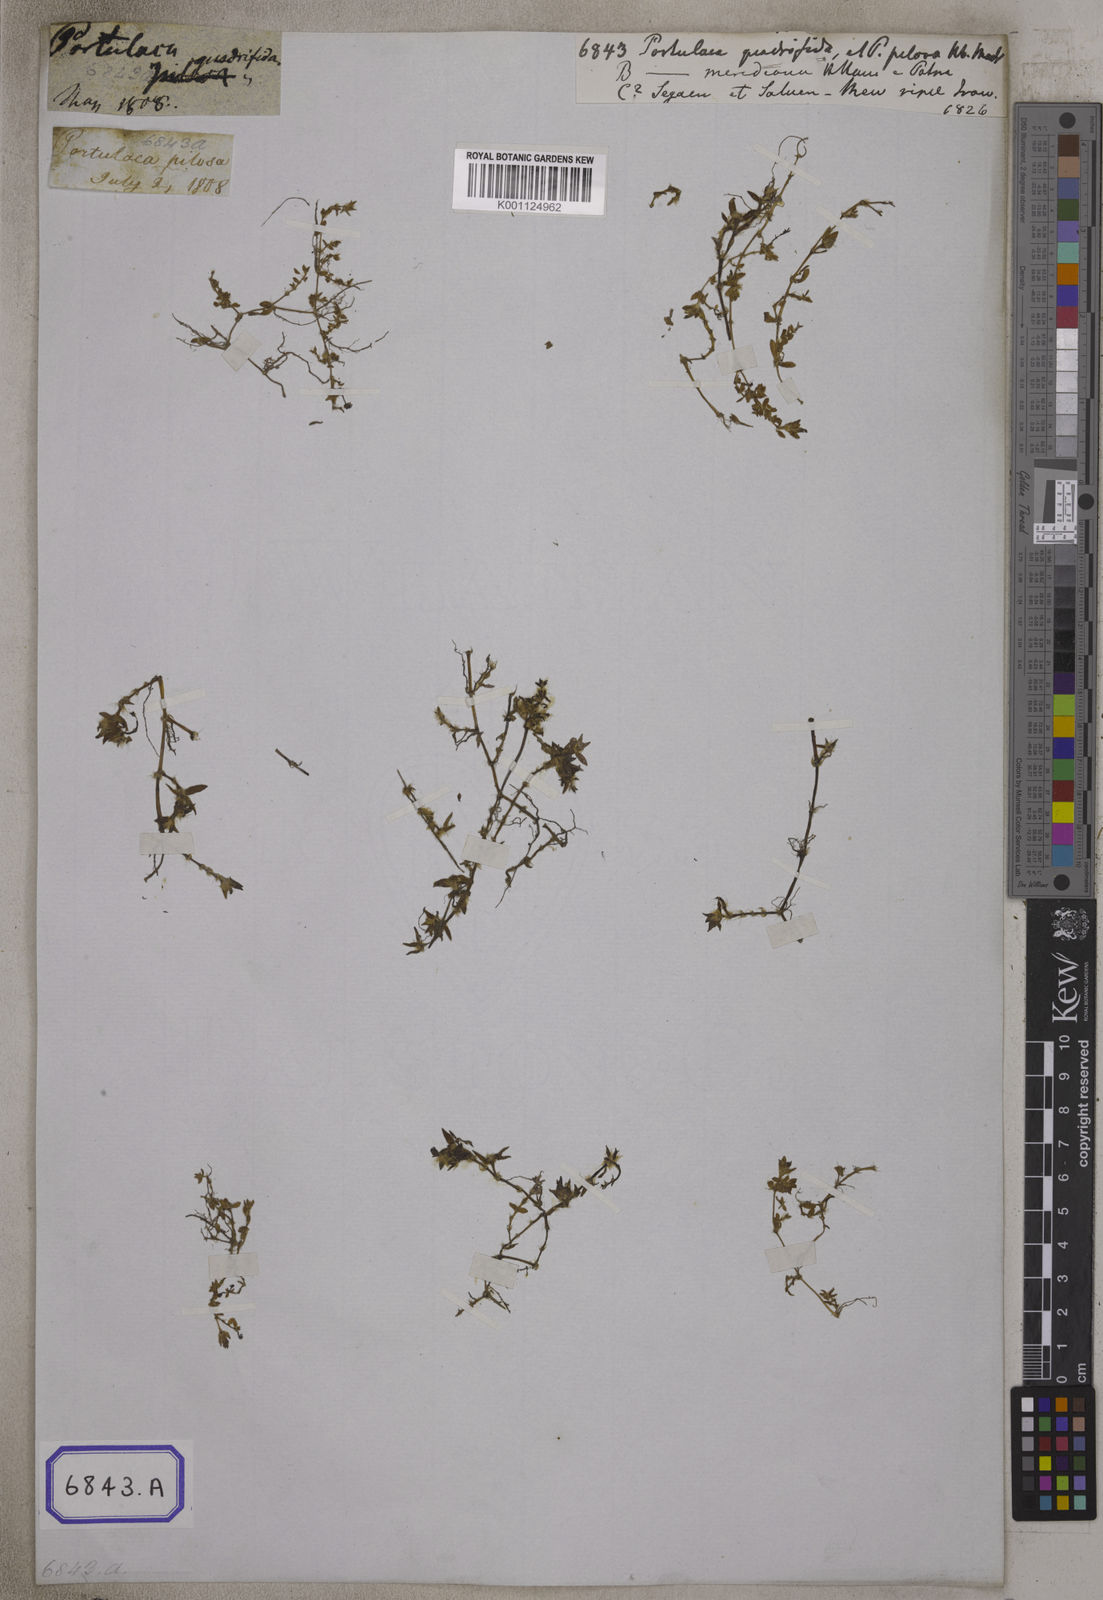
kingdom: Plantae
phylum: Tracheophyta
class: Magnoliopsida
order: Caryophyllales
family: Portulacaceae
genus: Portulaca
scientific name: Portulaca quadrifida
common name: Chickenweed
